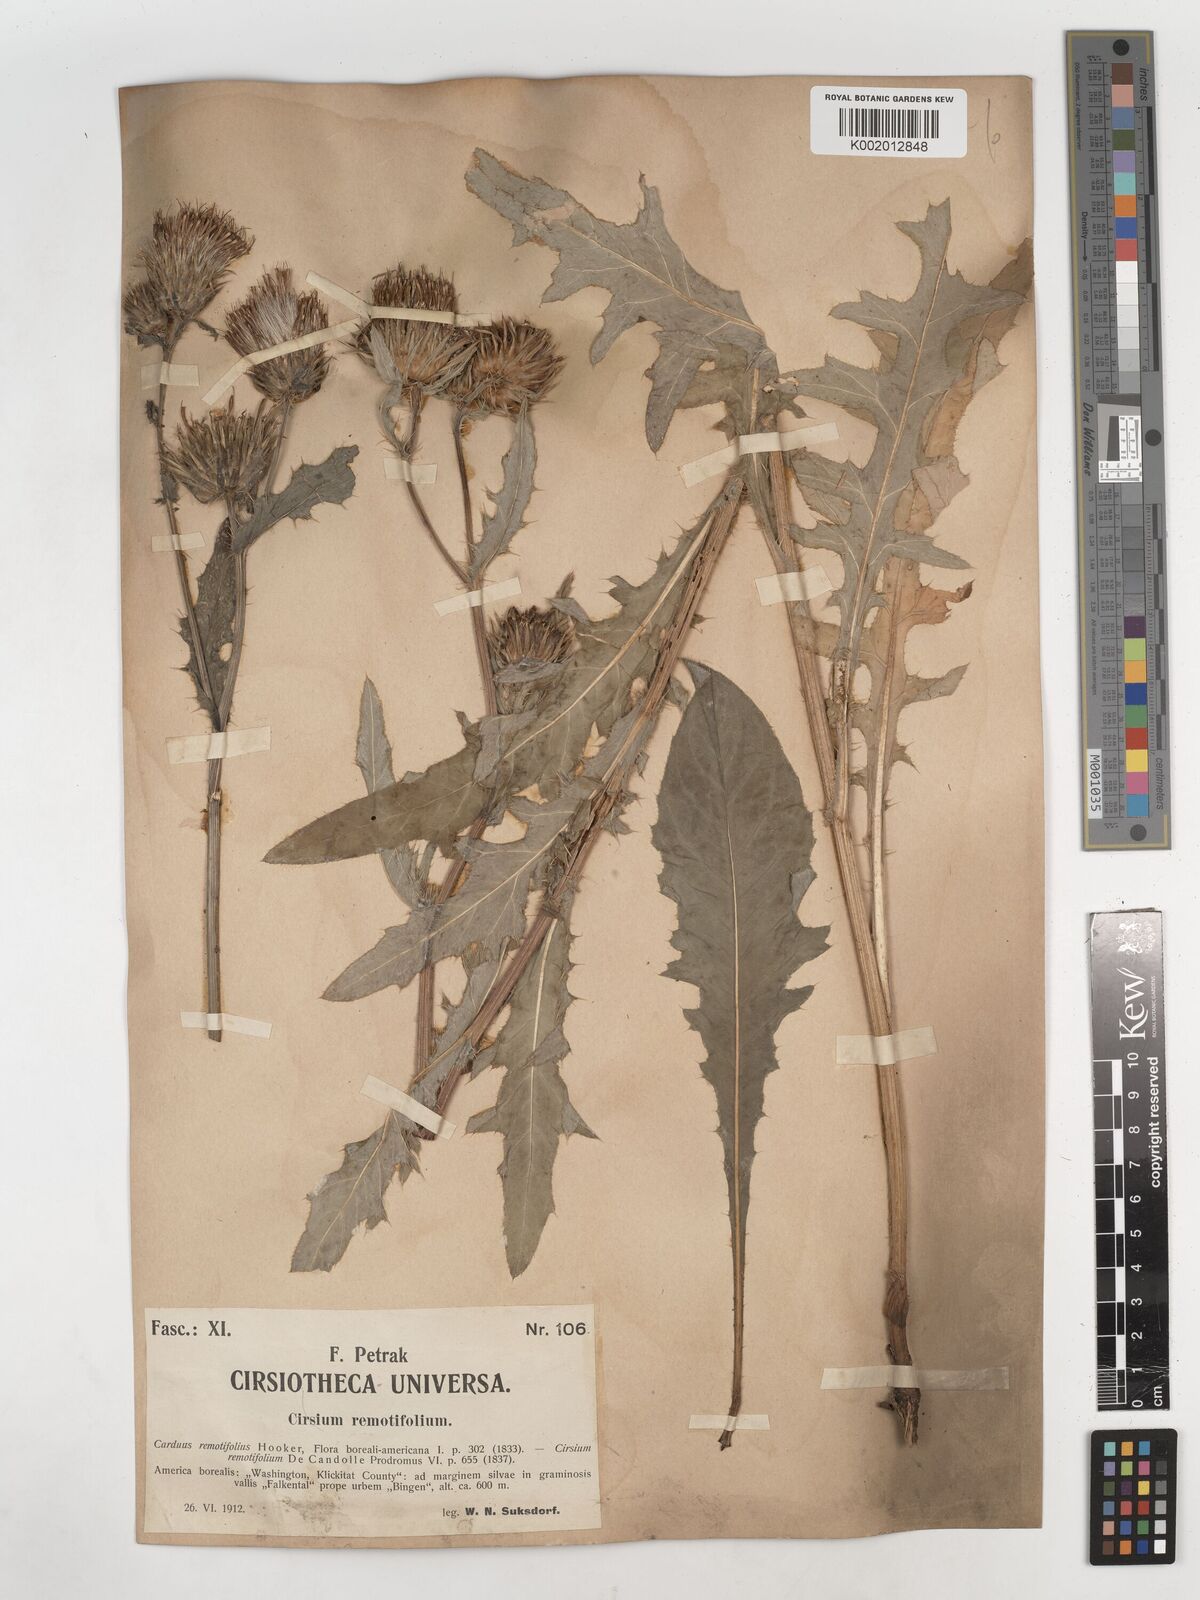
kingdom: Plantae
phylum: Tracheophyta
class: Magnoliopsida
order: Asterales
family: Asteraceae
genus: Cirsium
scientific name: Cirsium remotifolium
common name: Remote-leaf thistle
